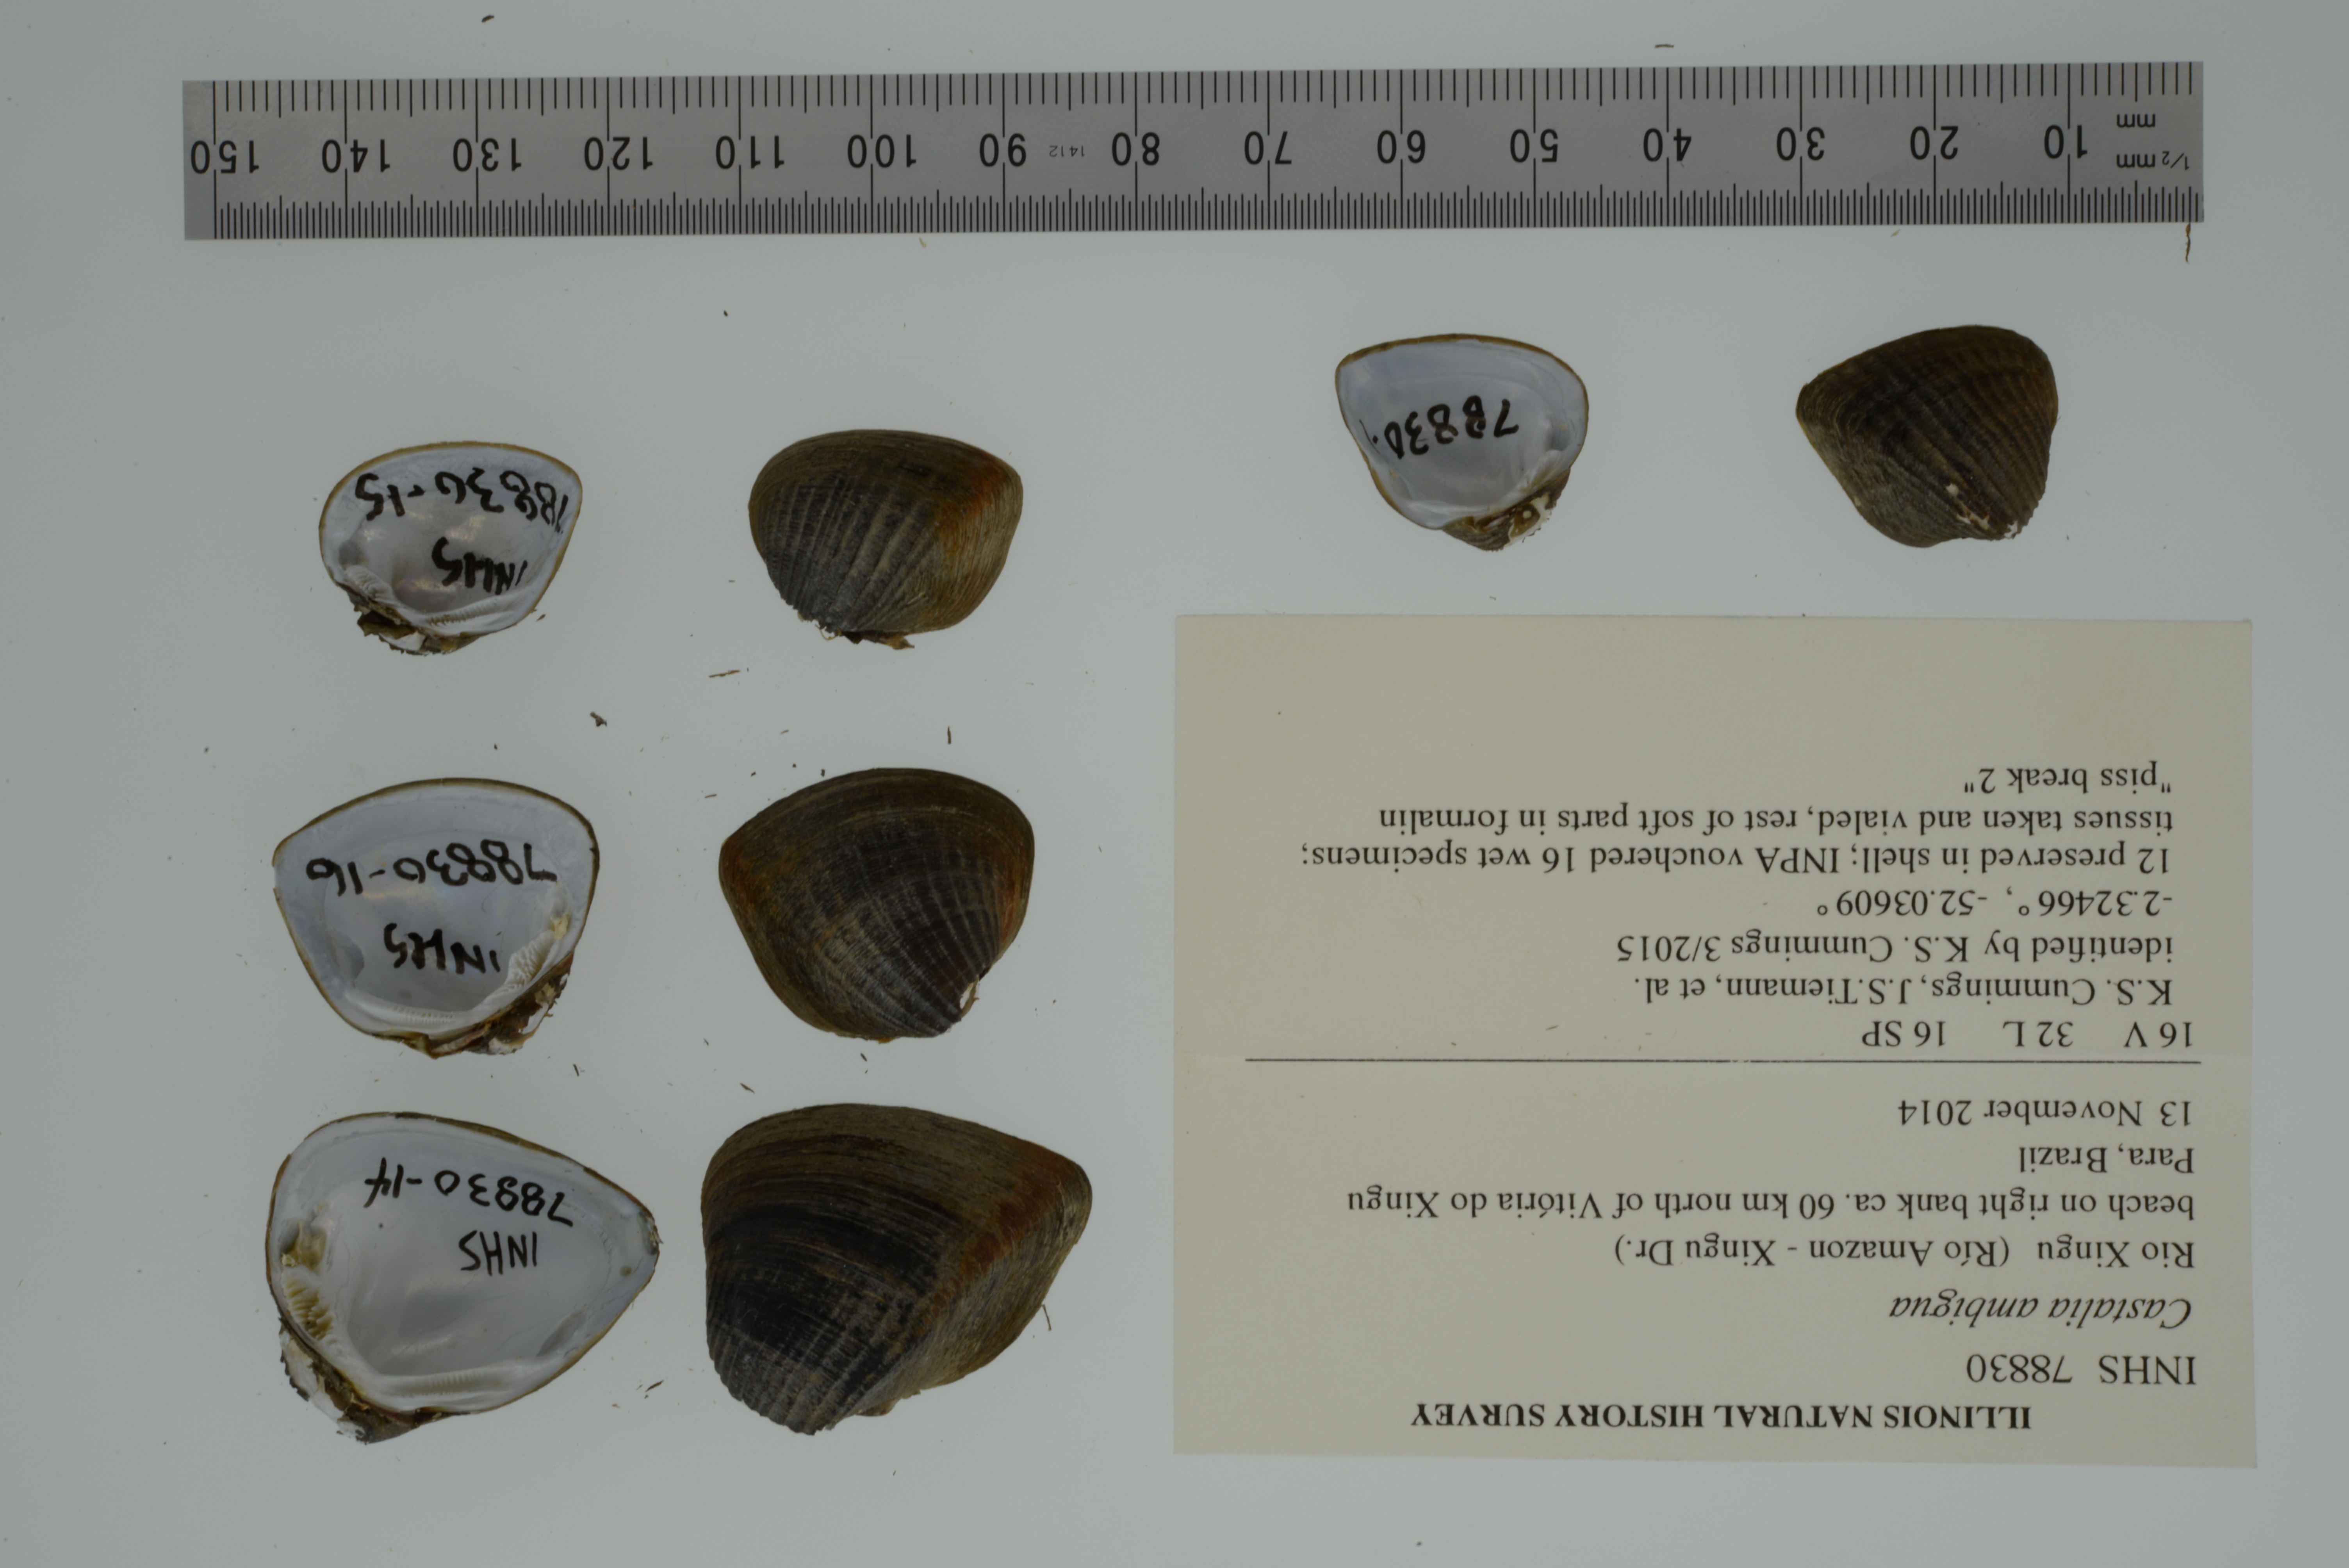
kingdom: Animalia
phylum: Mollusca
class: Bivalvia
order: Unionida
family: Hyriidae
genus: Castalia
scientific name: Castalia ambigua
